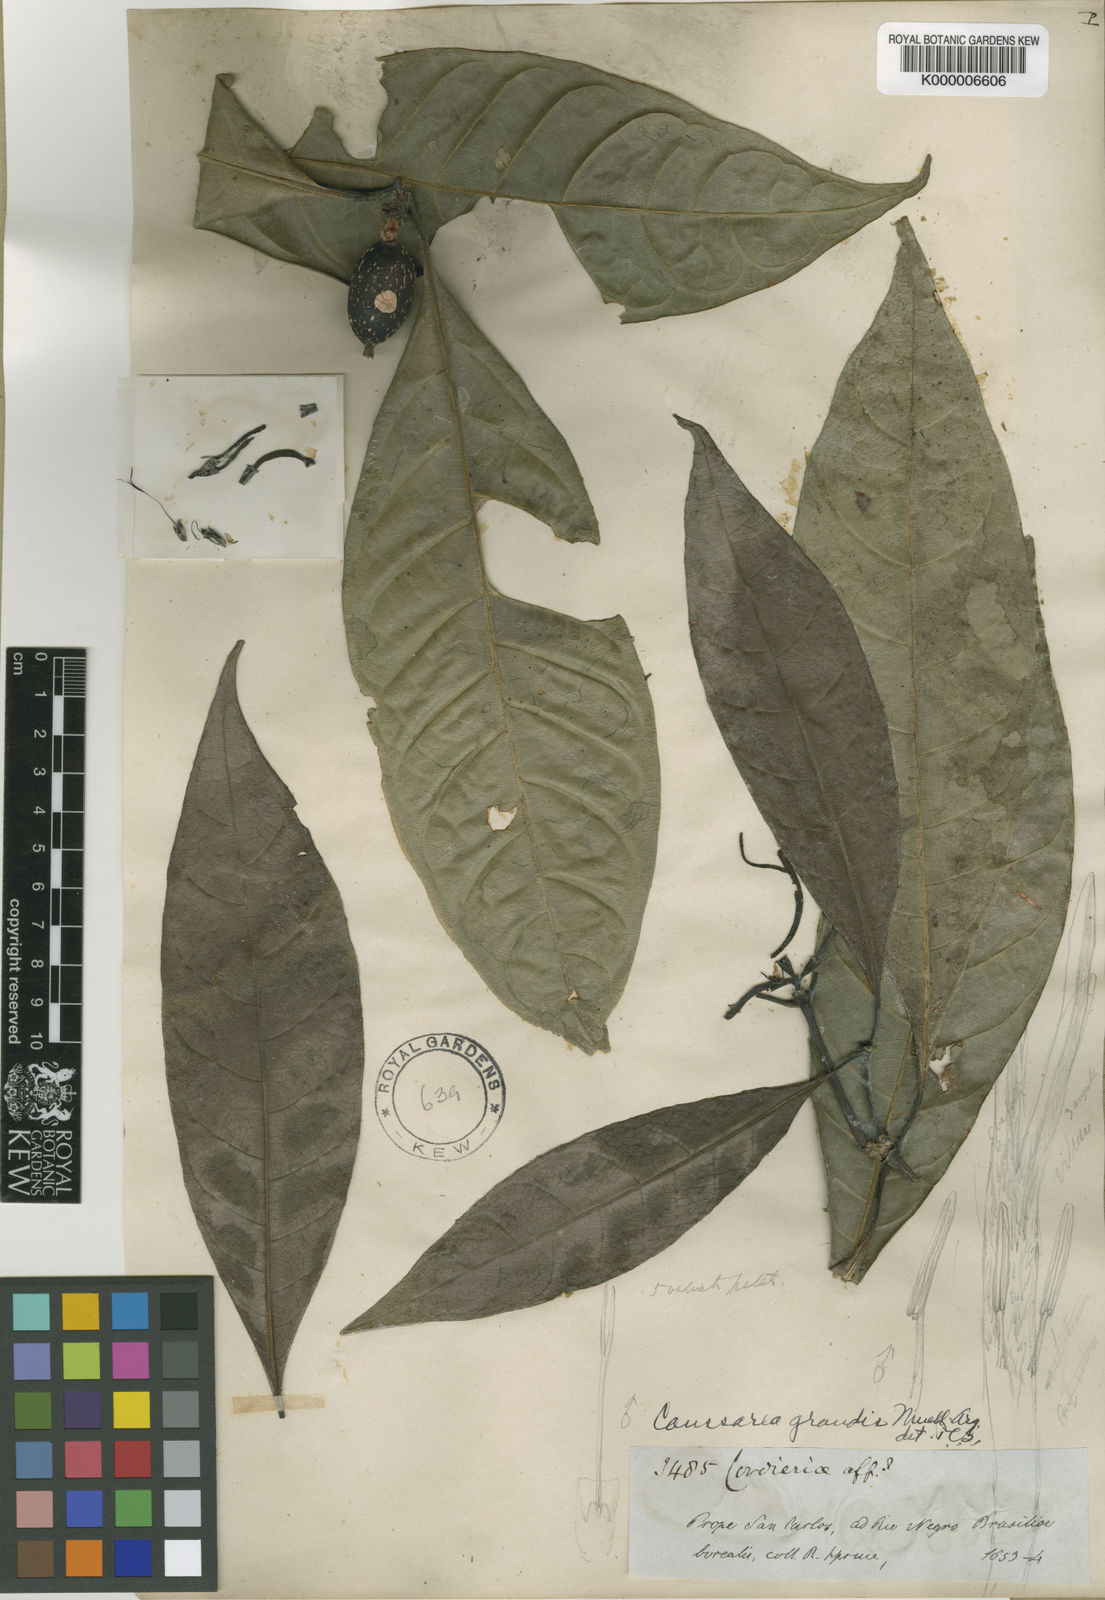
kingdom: Plantae
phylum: Tracheophyta
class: Magnoliopsida
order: Gentianales
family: Rubiaceae
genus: Coussarea
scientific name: Coussarea
